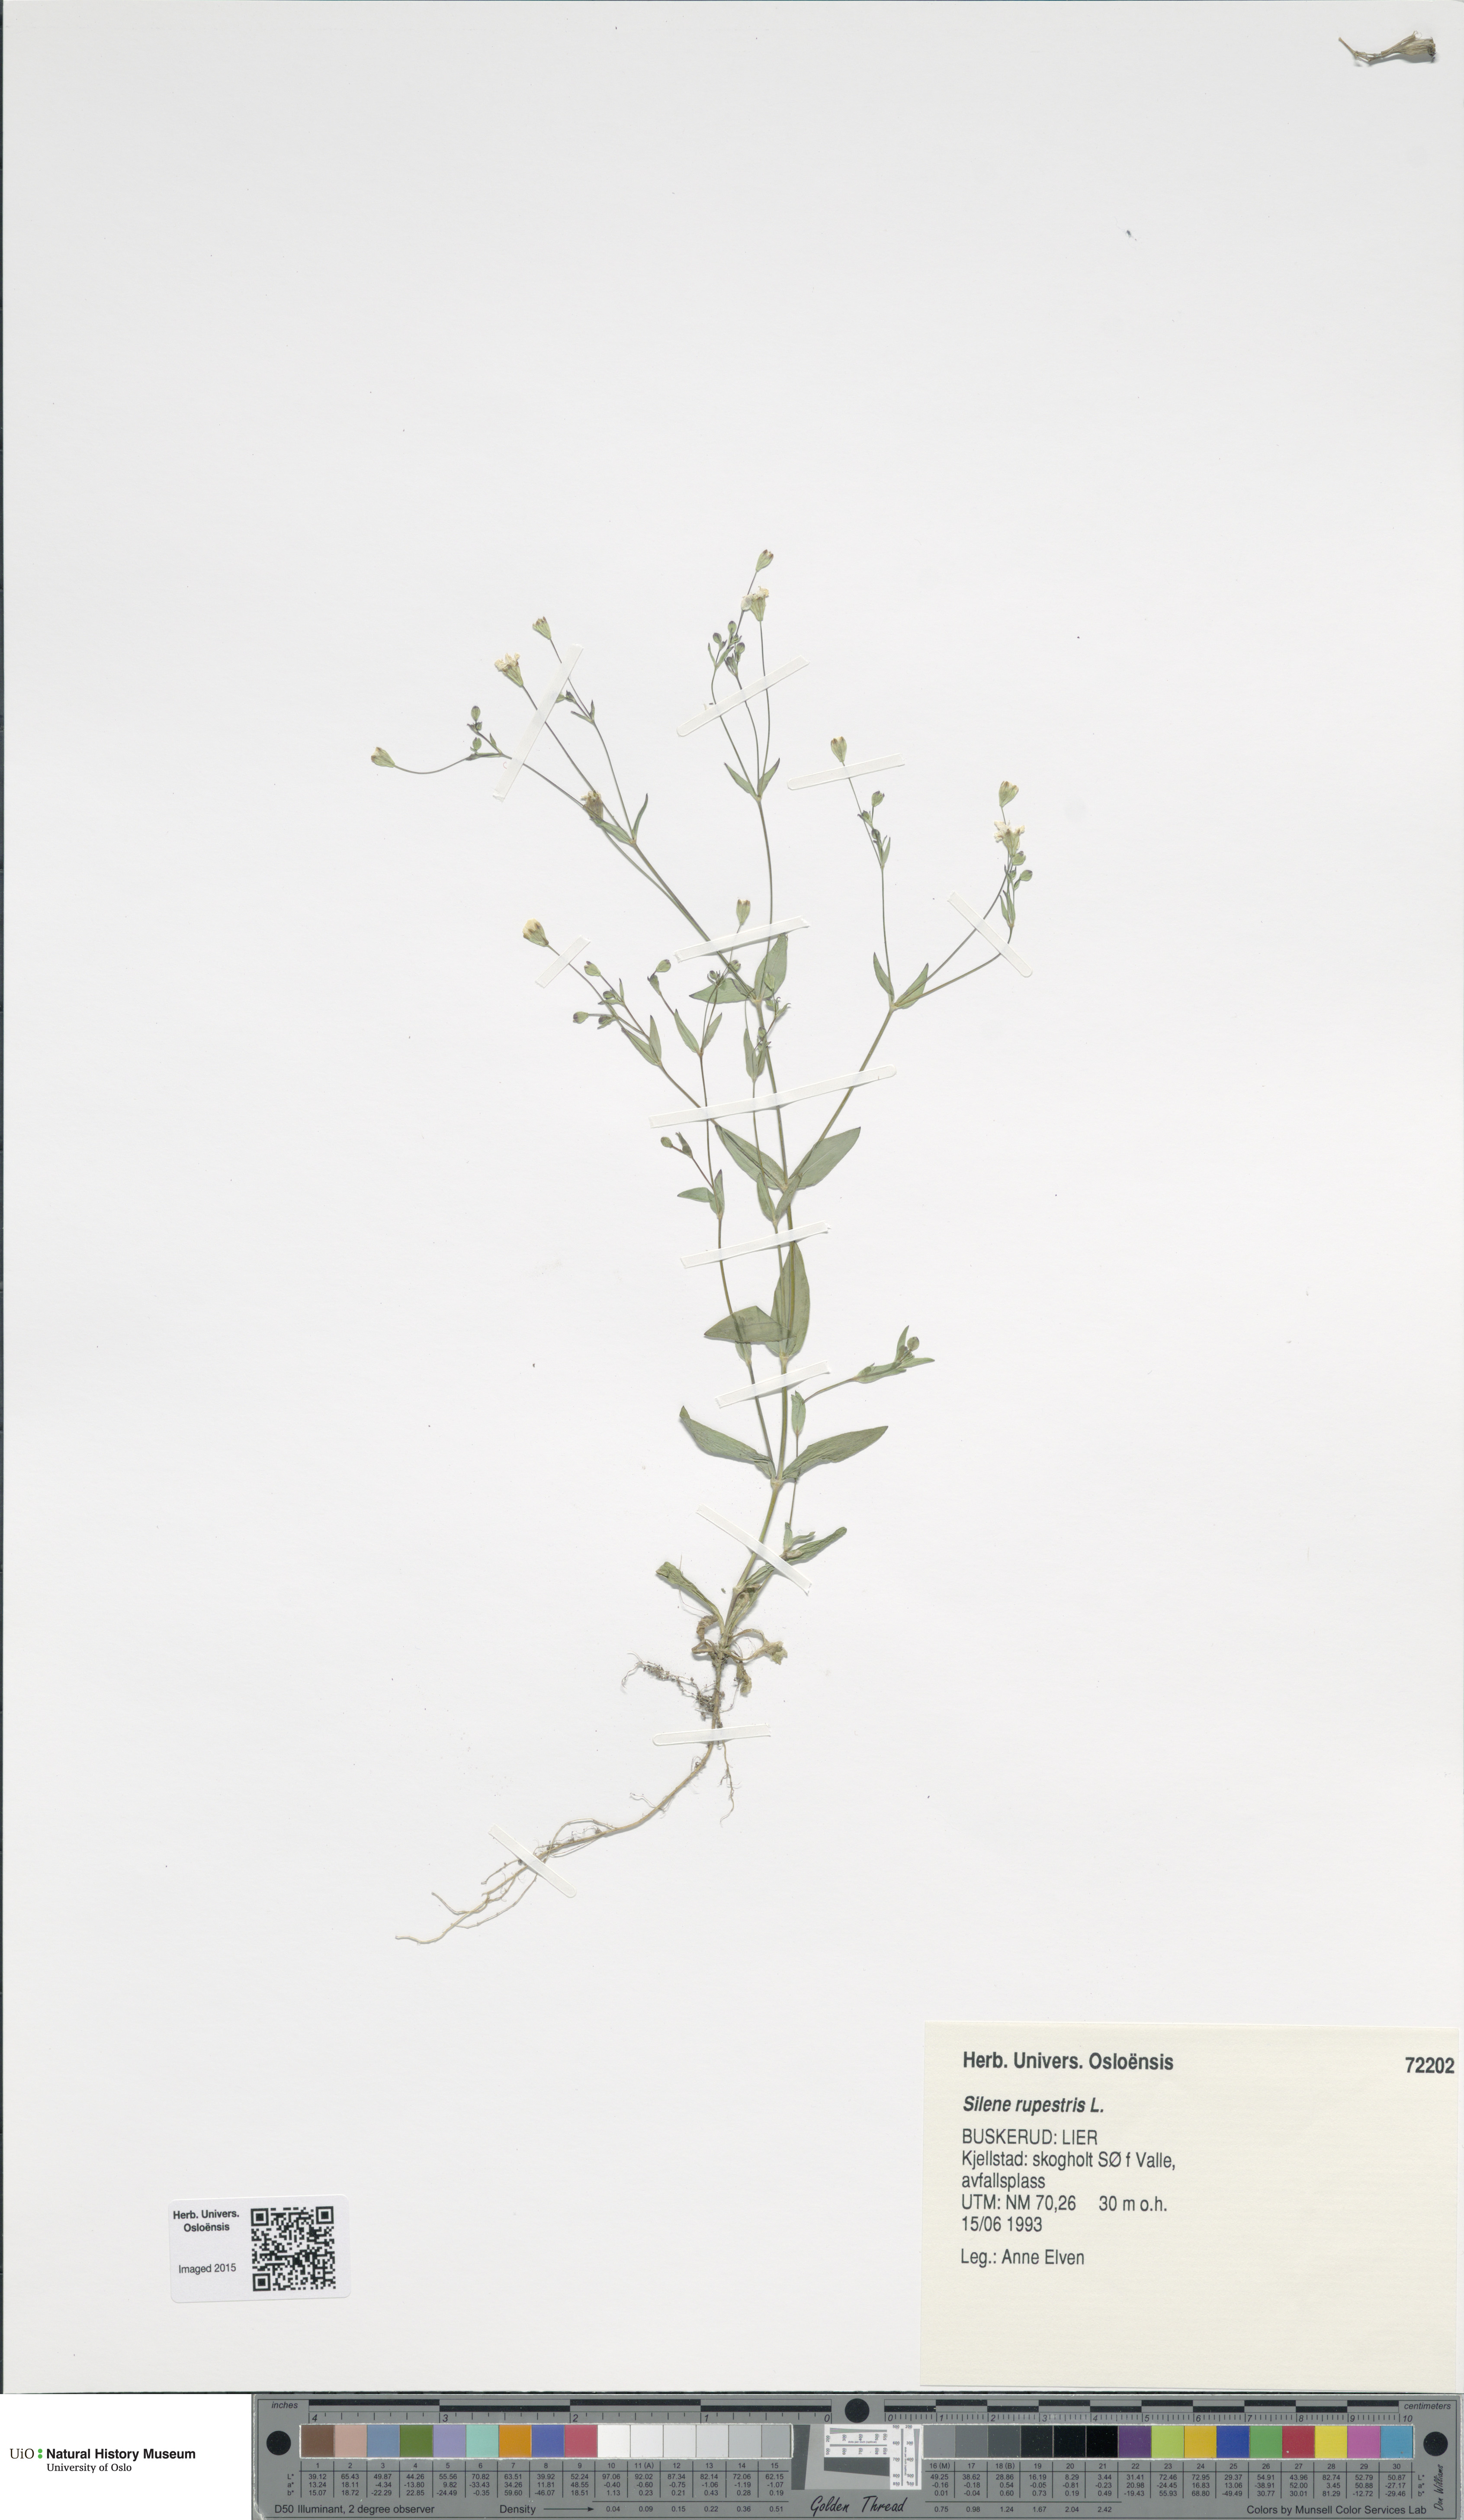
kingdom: Plantae
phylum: Tracheophyta
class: Magnoliopsida
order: Caryophyllales
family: Caryophyllaceae
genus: Atocion
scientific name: Atocion rupestre
